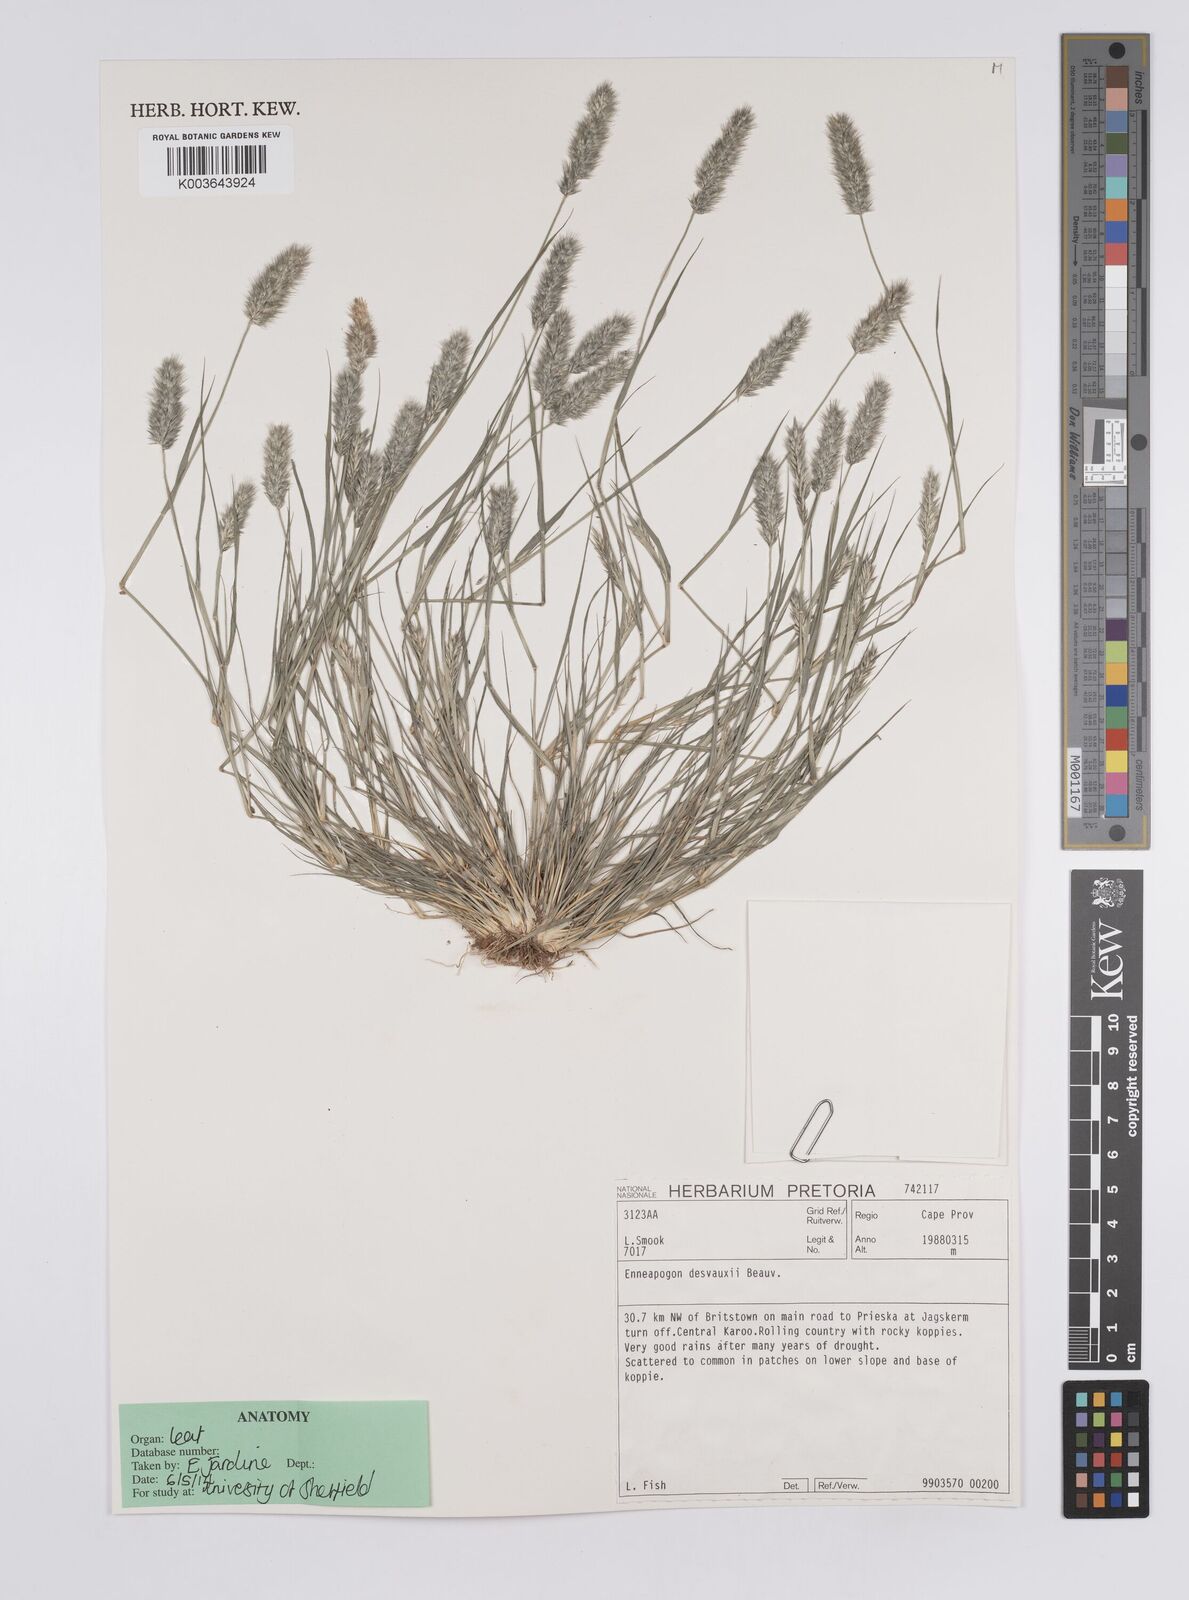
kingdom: Plantae
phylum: Tracheophyta
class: Liliopsida
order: Poales
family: Poaceae
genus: Enneapogon
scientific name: Enneapogon desvauxii
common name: Feather pappus grass
